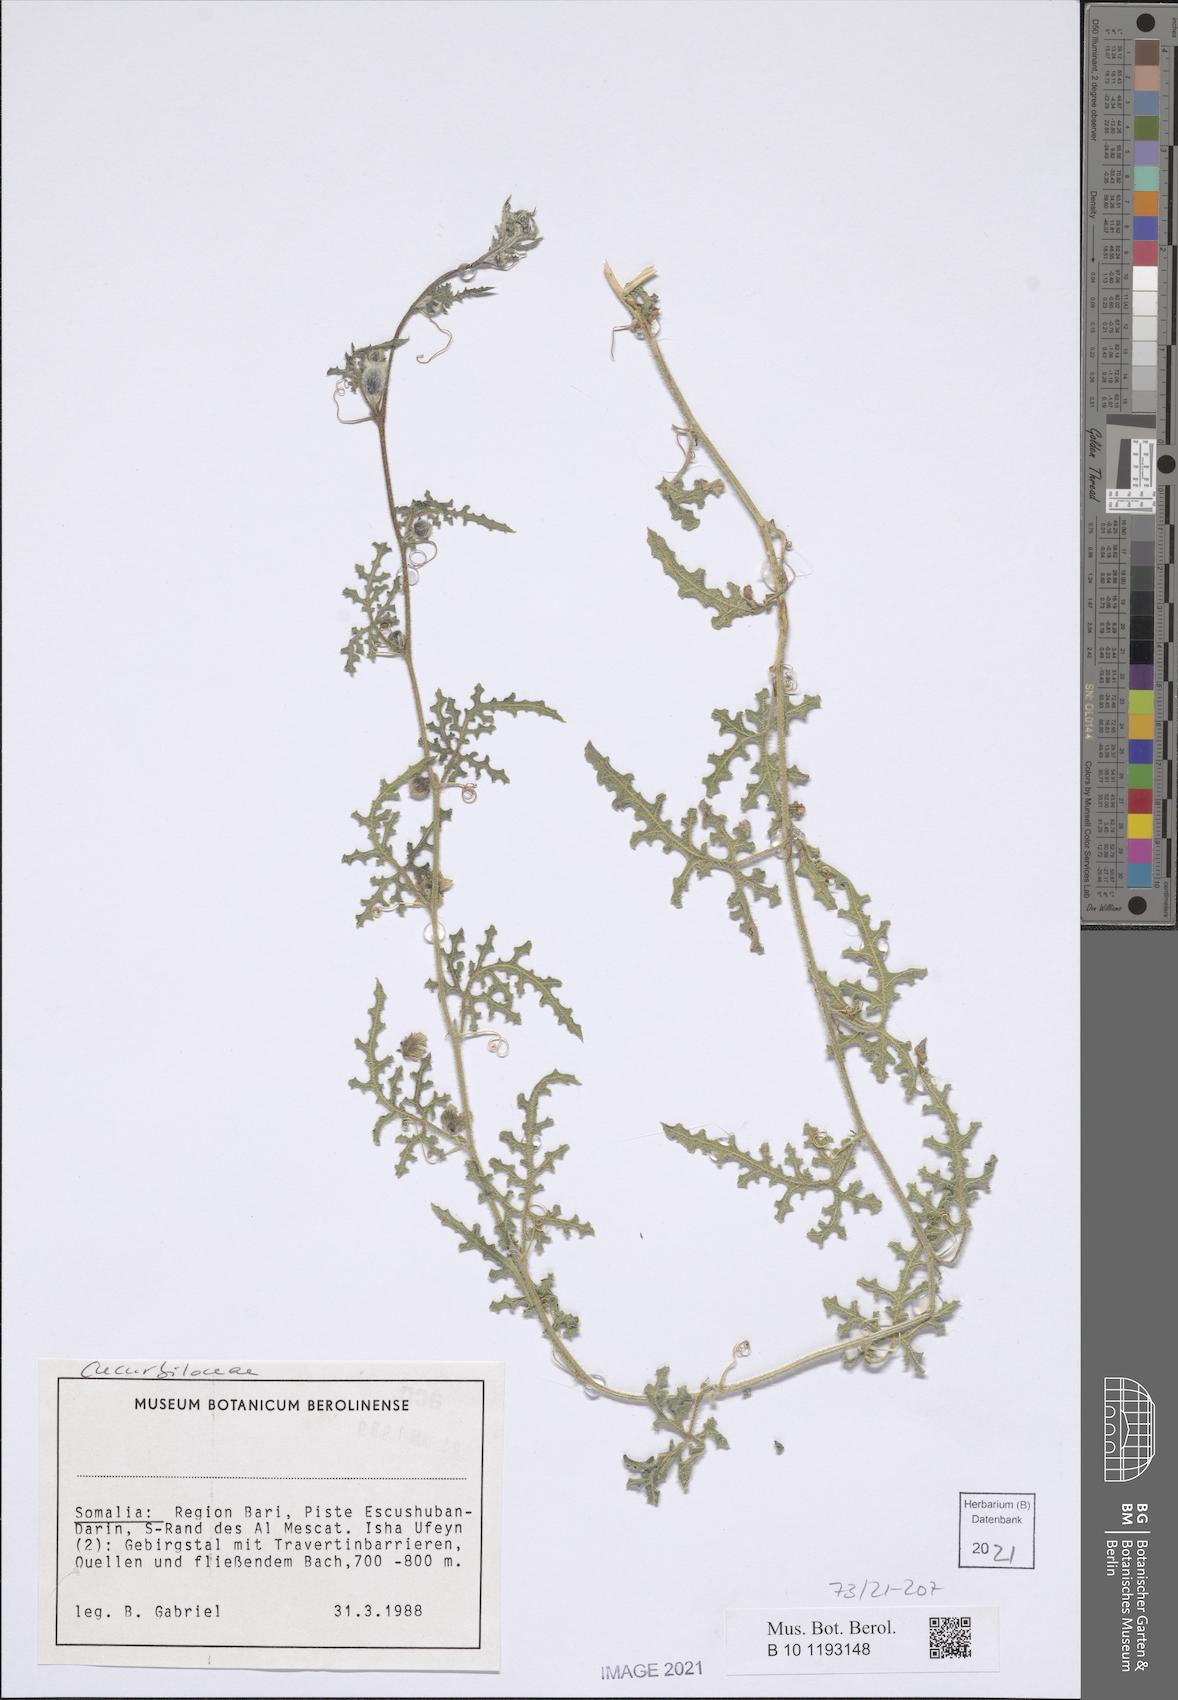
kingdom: Plantae
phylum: Tracheophyta
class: Magnoliopsida
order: Cucurbitales
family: Cucurbitaceae
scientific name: Cucurbitaceae
